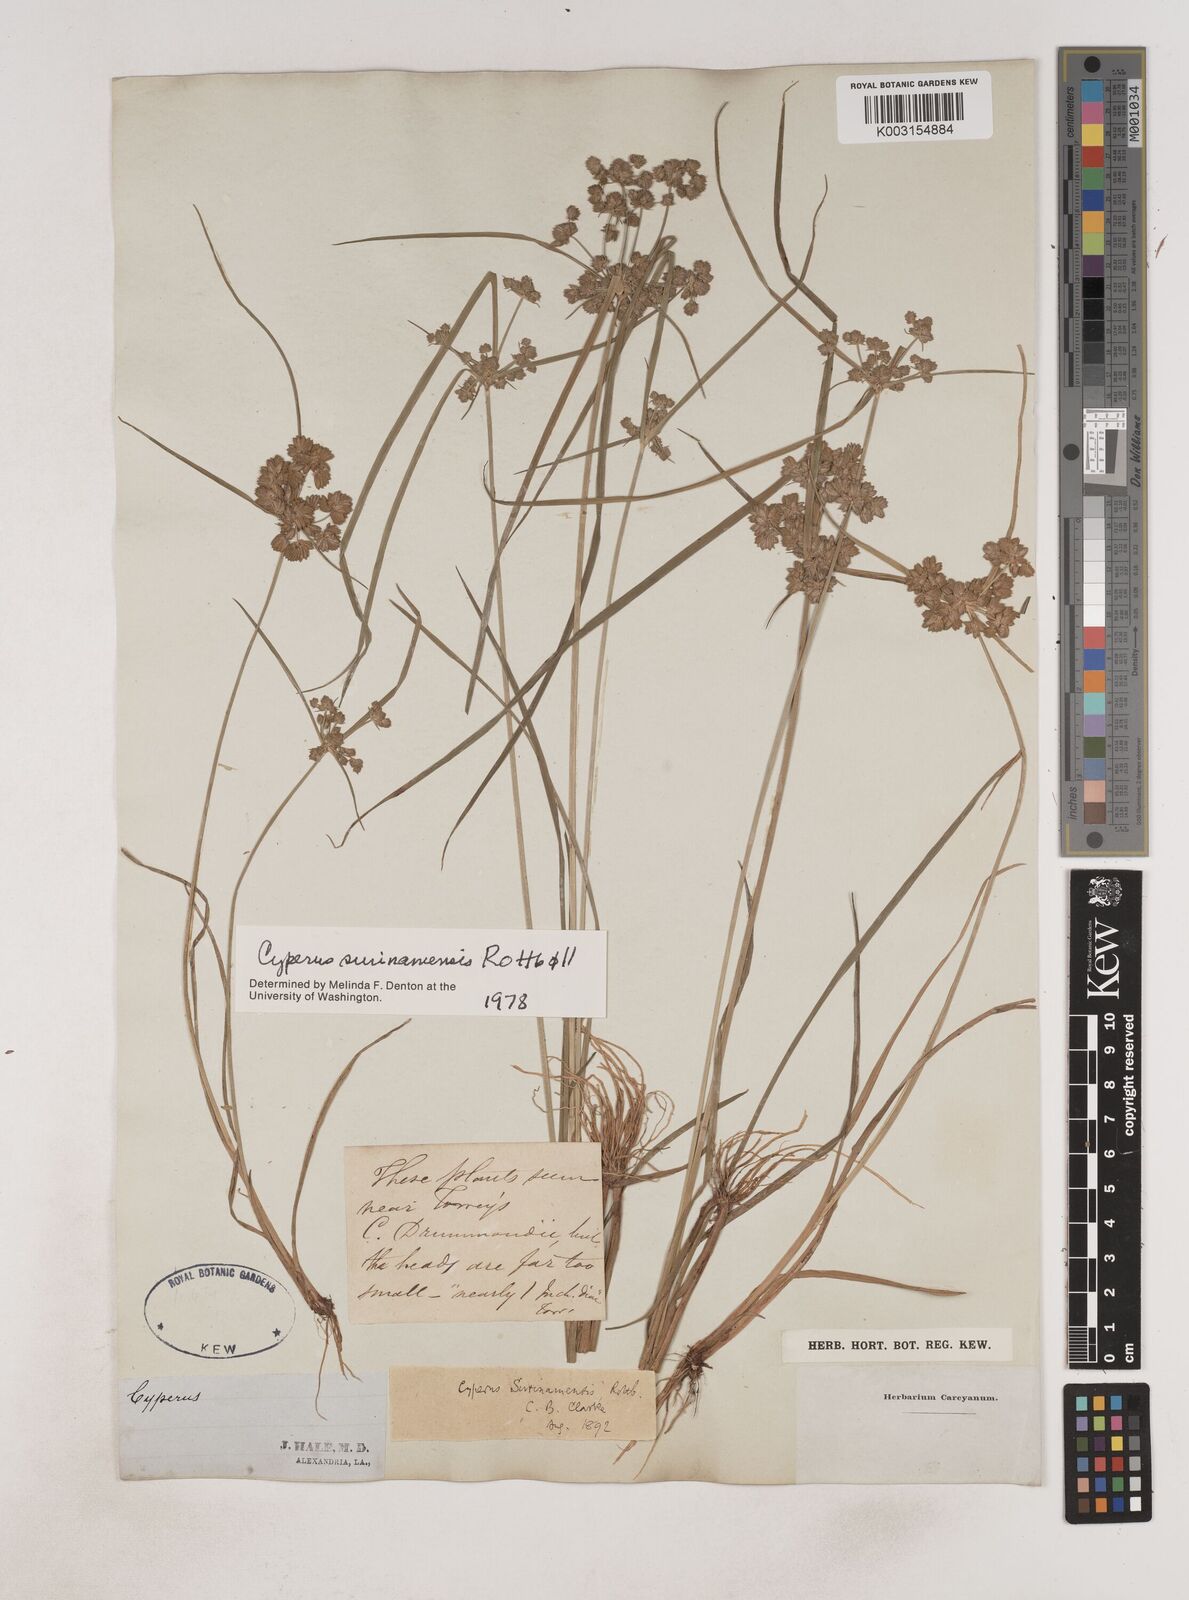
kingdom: Plantae
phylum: Tracheophyta
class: Liliopsida
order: Poales
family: Cyperaceae
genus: Cyperus
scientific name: Cyperus surinamensis
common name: Tropical flat sedge
